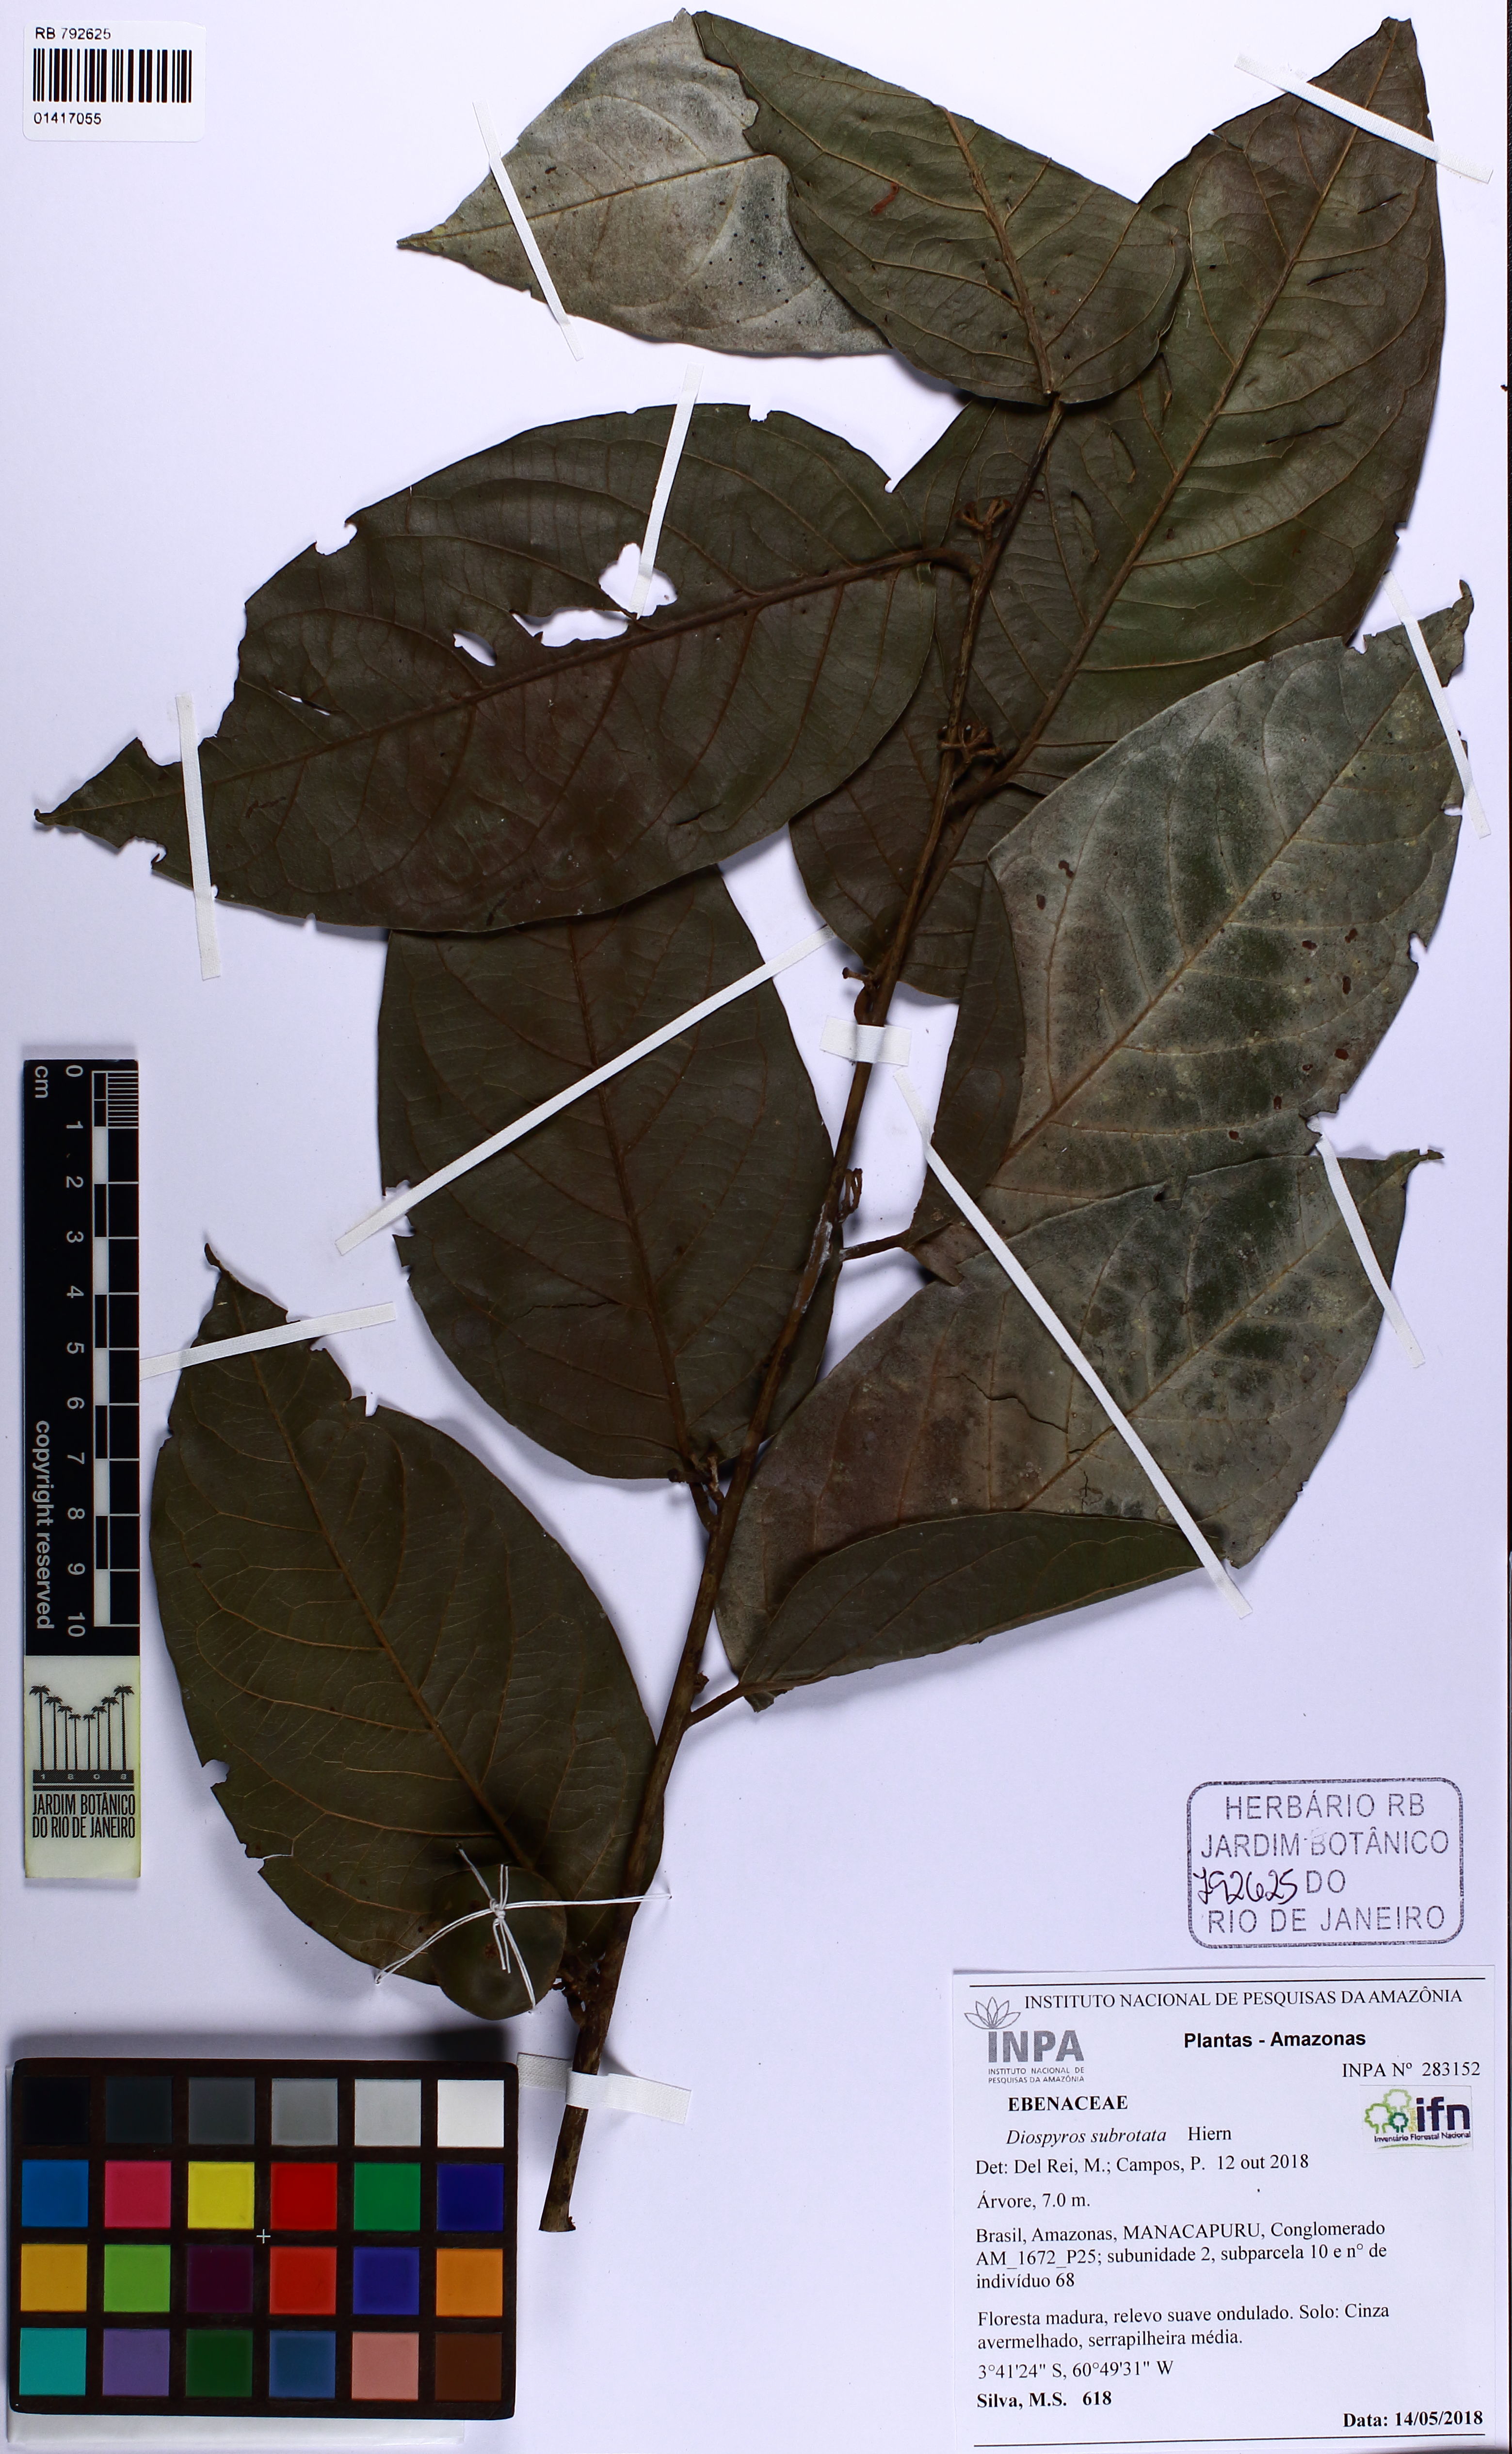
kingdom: Plantae
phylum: Tracheophyta
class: Magnoliopsida
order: Ericales
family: Ebenaceae
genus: Diospyros
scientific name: Diospyros subrotata
